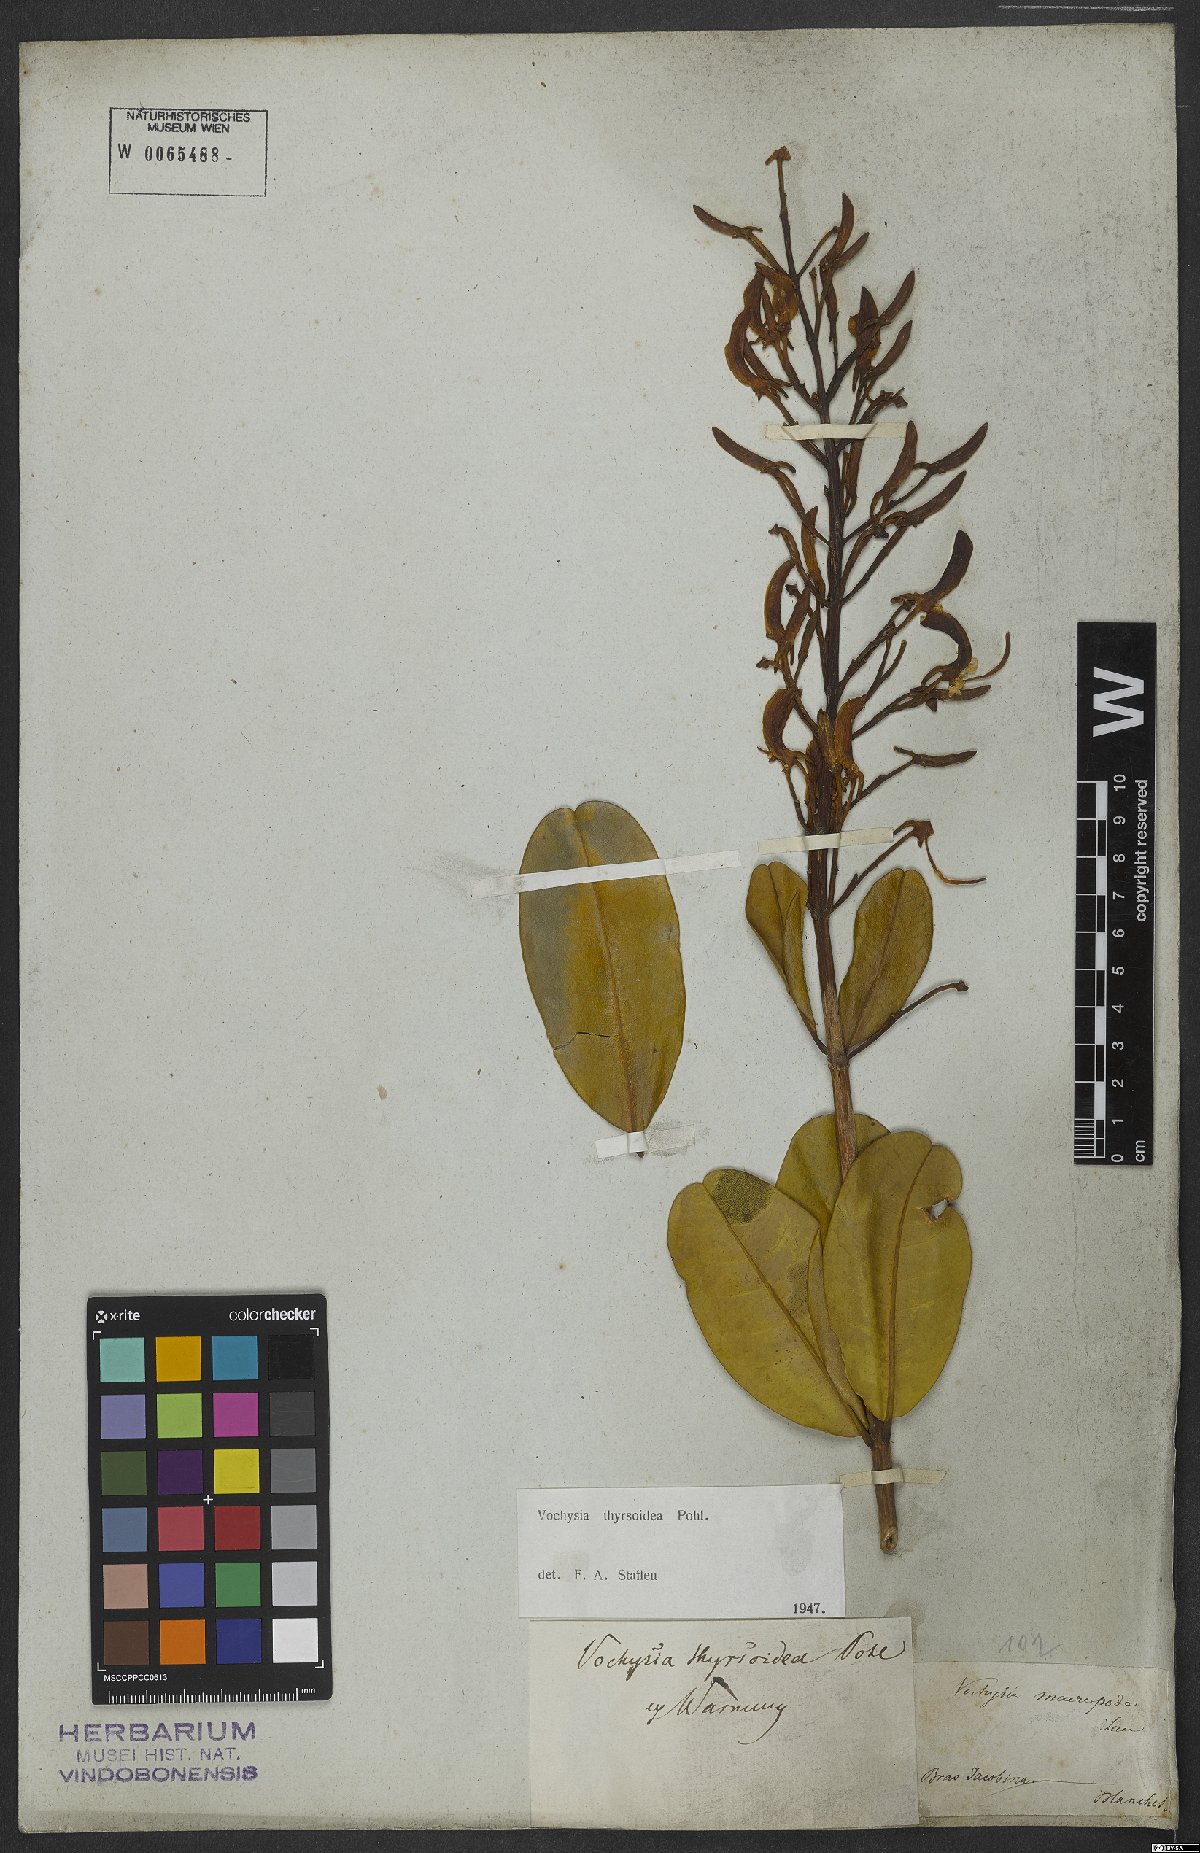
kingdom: Plantae
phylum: Tracheophyta
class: Magnoliopsida
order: Myrtales
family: Vochysiaceae
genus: Vochysia
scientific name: Vochysia thyrsoidea
